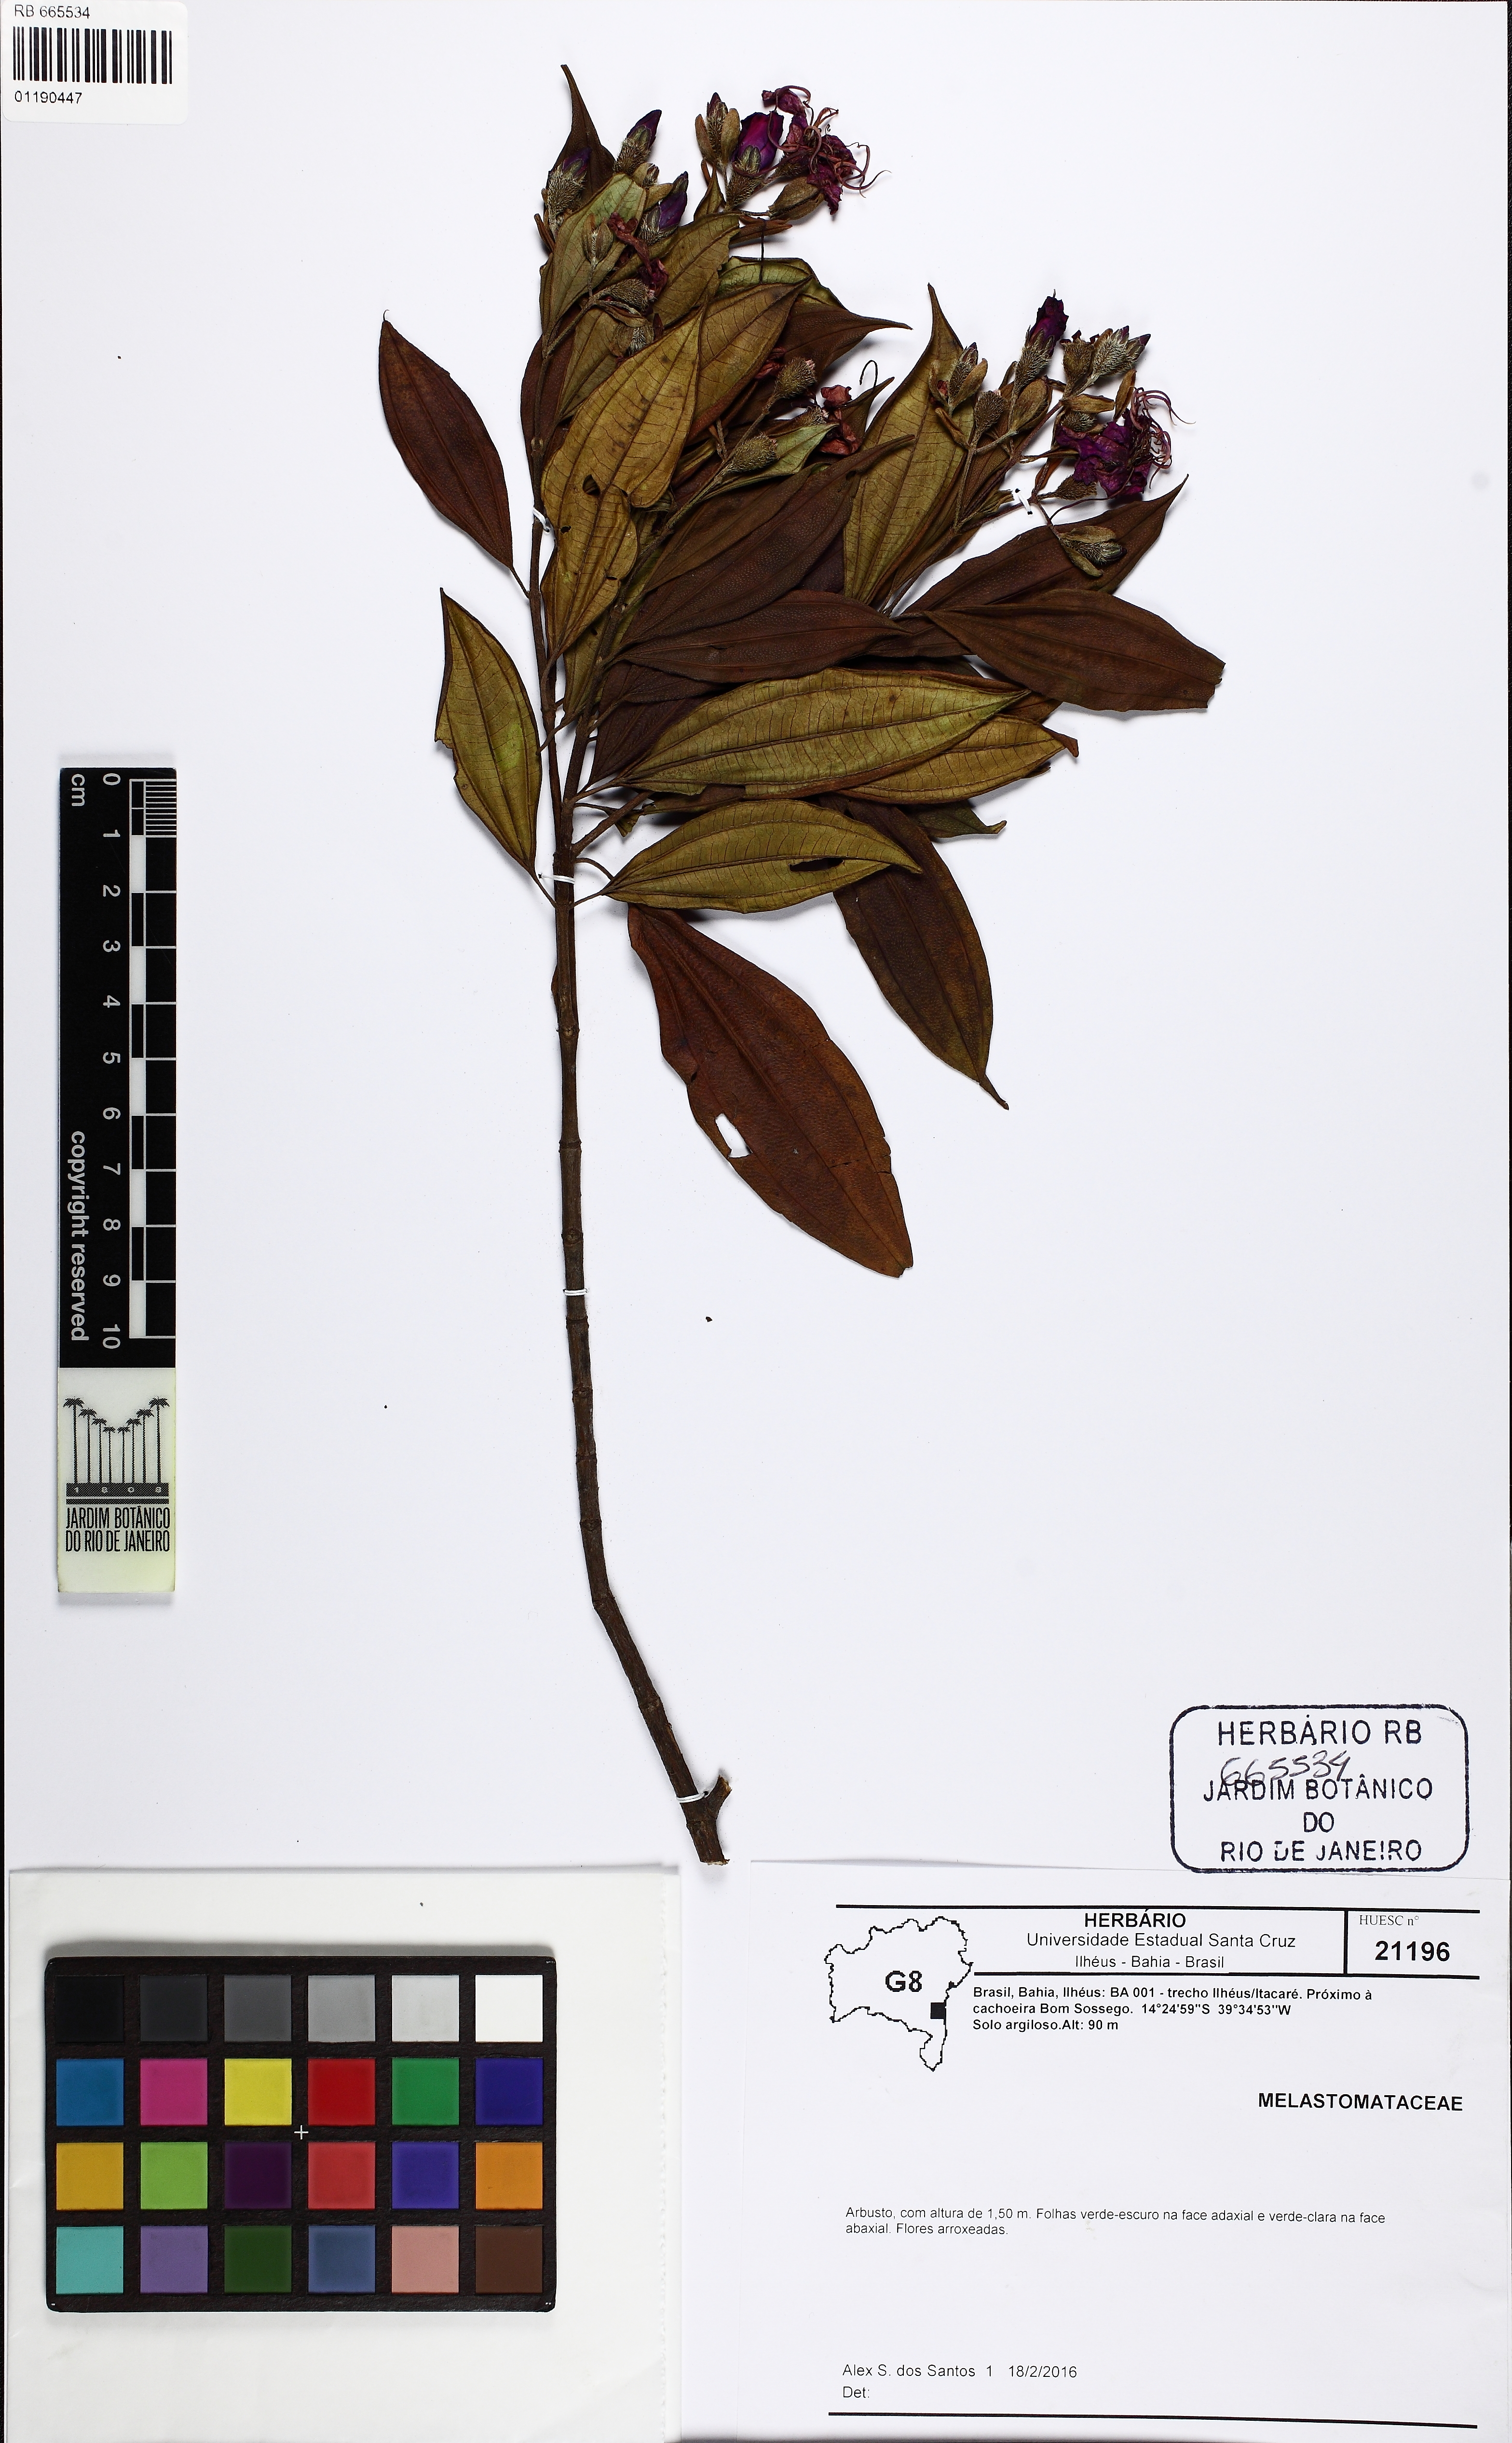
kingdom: Plantae
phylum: Tracheophyta
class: Magnoliopsida
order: Myrtales
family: Melastomataceae
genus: Pleroma
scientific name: Pleroma francavillanum
